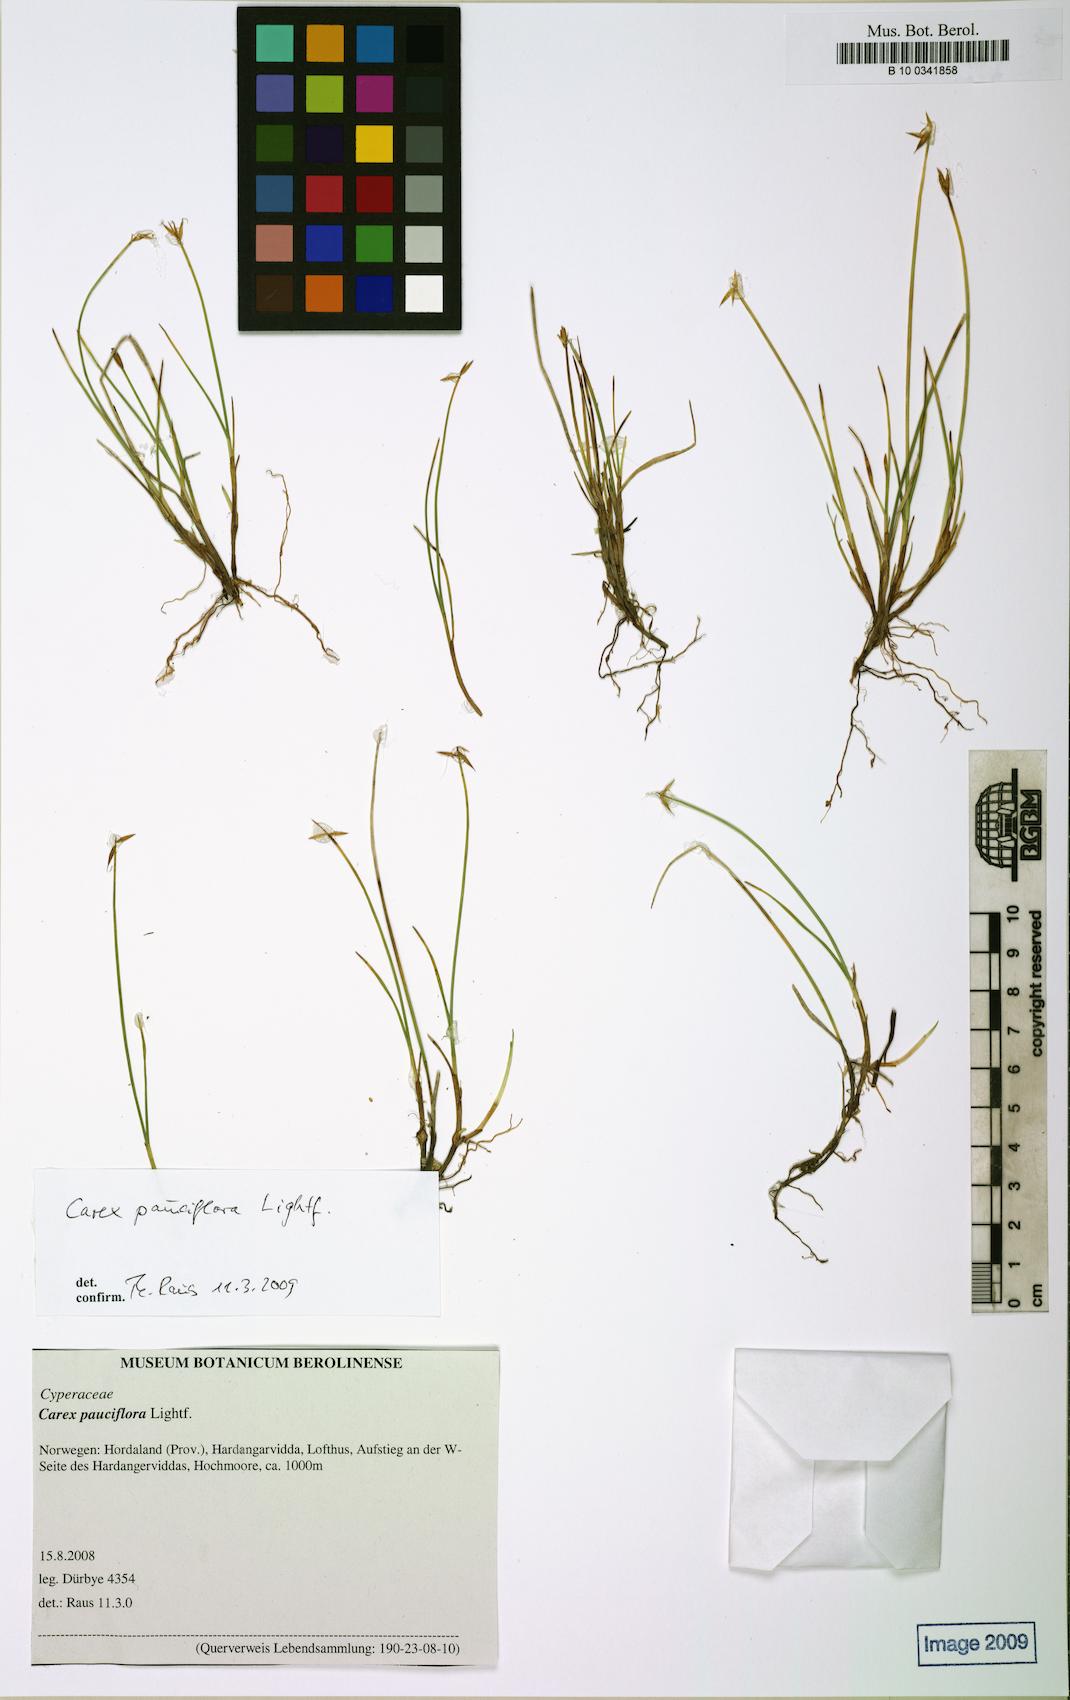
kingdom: Plantae
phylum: Tracheophyta
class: Liliopsida
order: Poales
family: Cyperaceae
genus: Carex
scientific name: Carex pauciflora
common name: Few-flowered sedge
